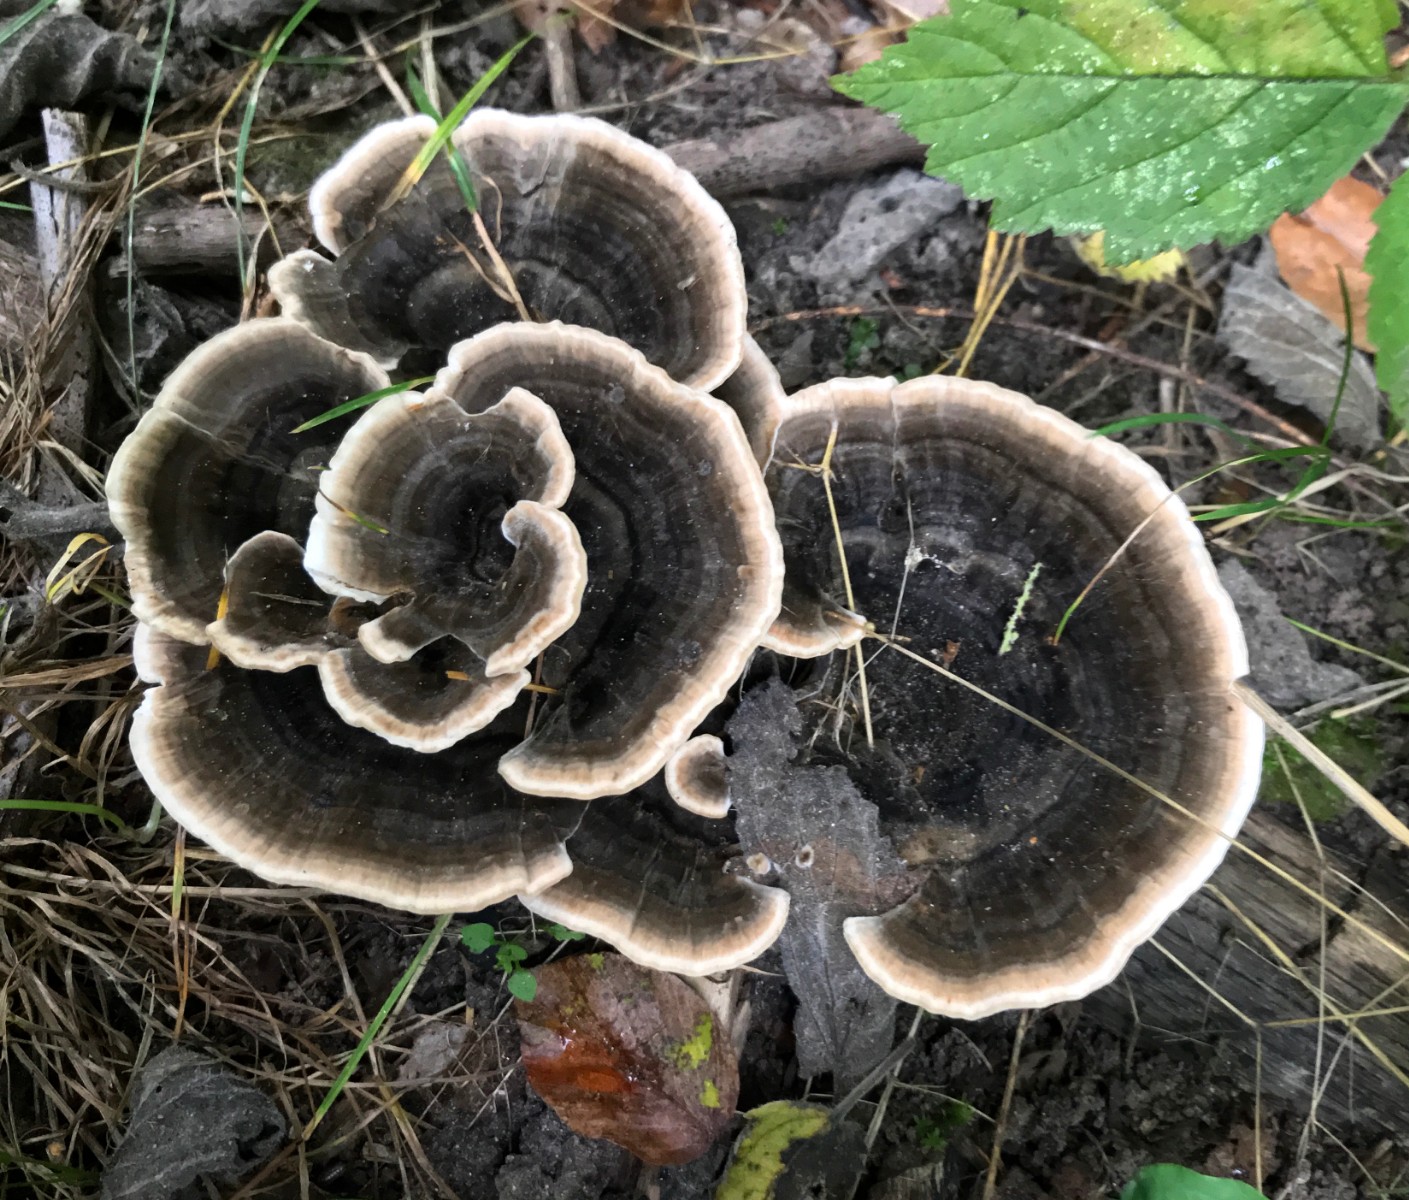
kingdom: Fungi
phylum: Basidiomycota
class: Agaricomycetes
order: Polyporales
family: Polyporaceae
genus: Trametes
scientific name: Trametes versicolor
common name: broget læderporesvamp
